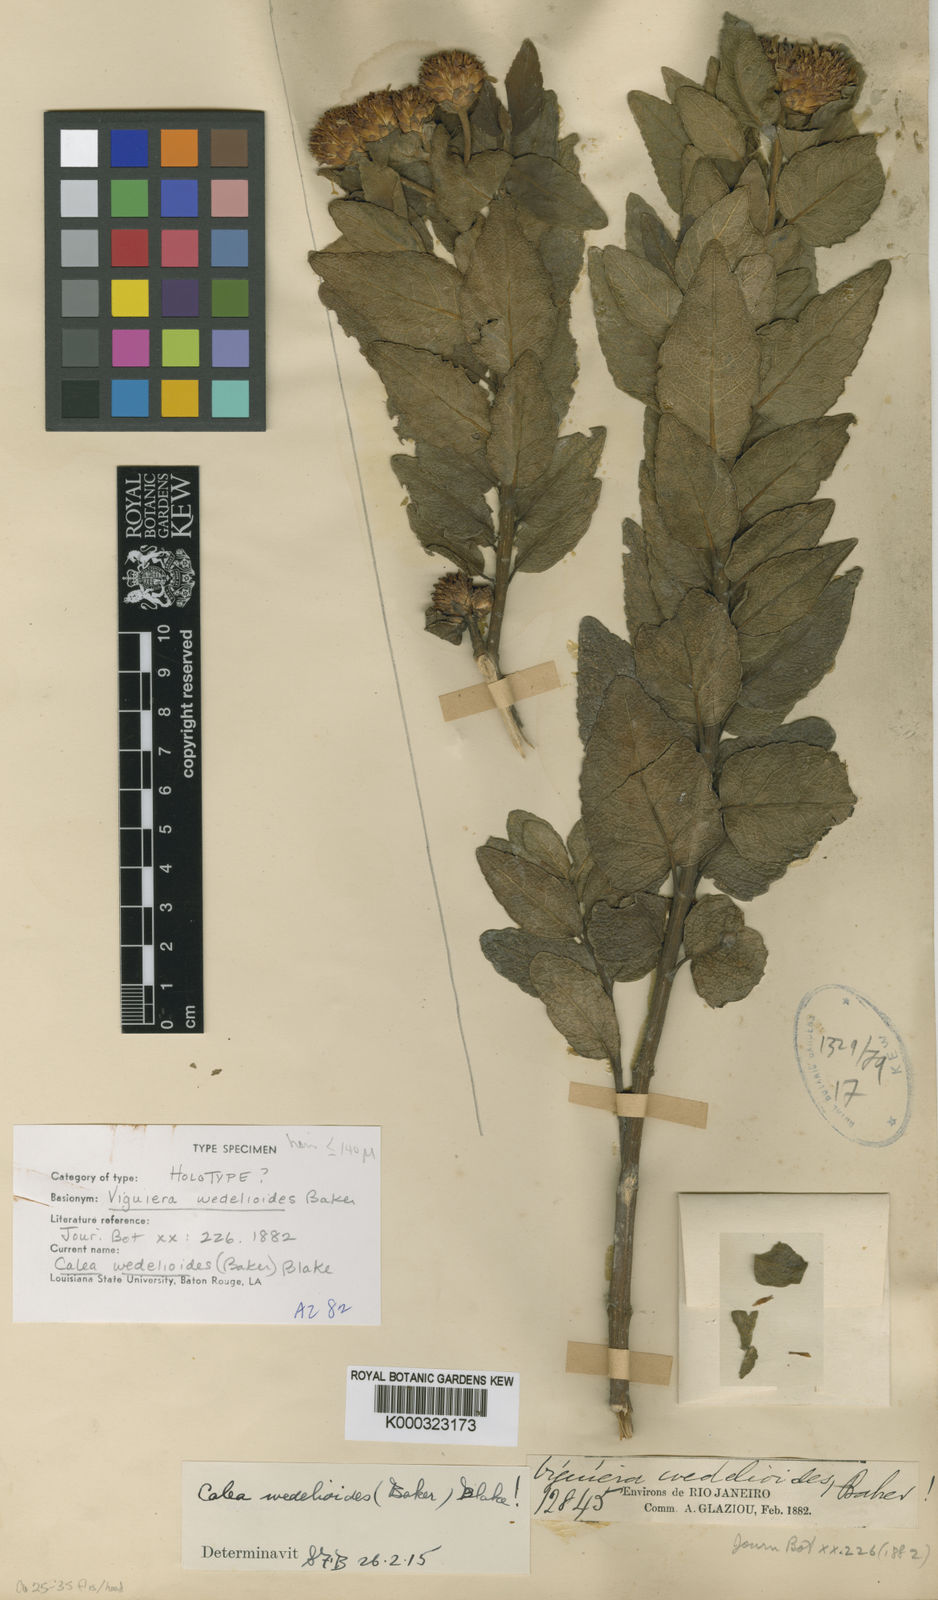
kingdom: Plantae
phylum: Tracheophyta
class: Magnoliopsida
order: Asterales
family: Asteraceae
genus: Calea
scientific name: Calea wedelioides
